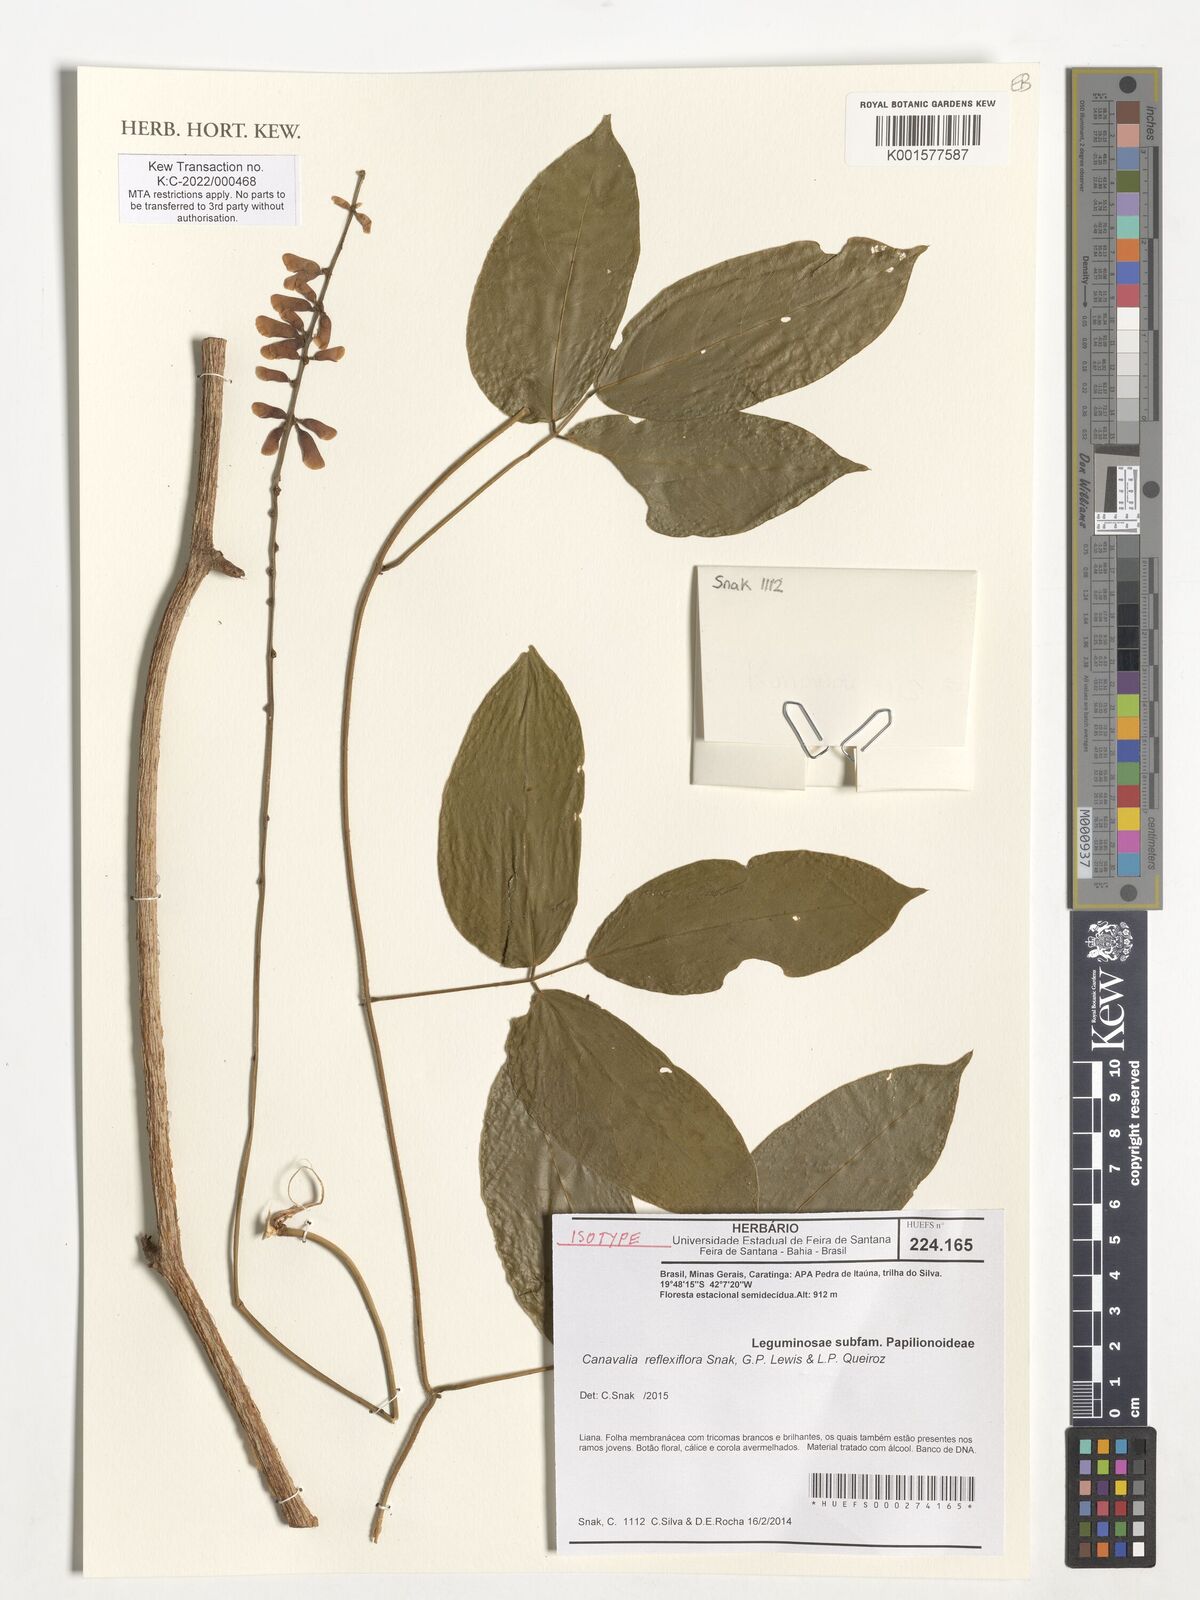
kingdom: Plantae
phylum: Tracheophyta
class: Magnoliopsida
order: Fabales
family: Fabaceae
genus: Canavalia
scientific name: Canavalia reflexiflora
